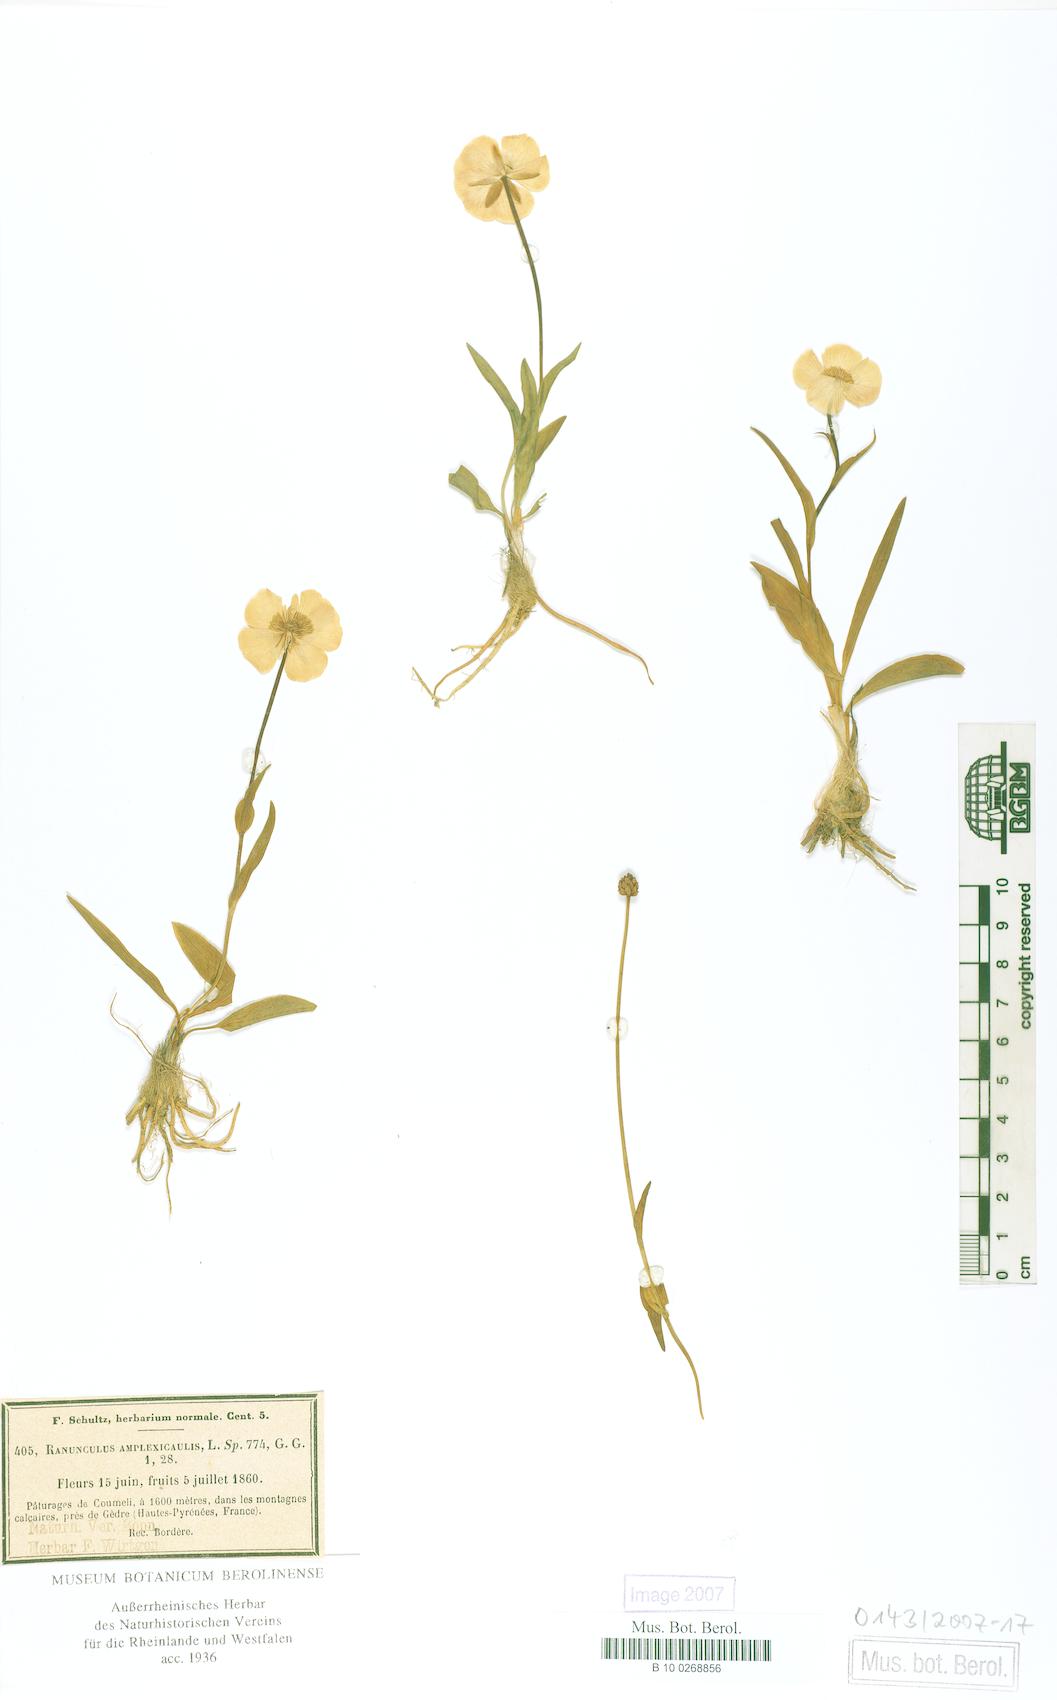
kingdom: Plantae
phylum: Tracheophyta
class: Magnoliopsida
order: Ranunculales
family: Ranunculaceae
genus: Ranunculus
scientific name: Ranunculus amplexicaulis
